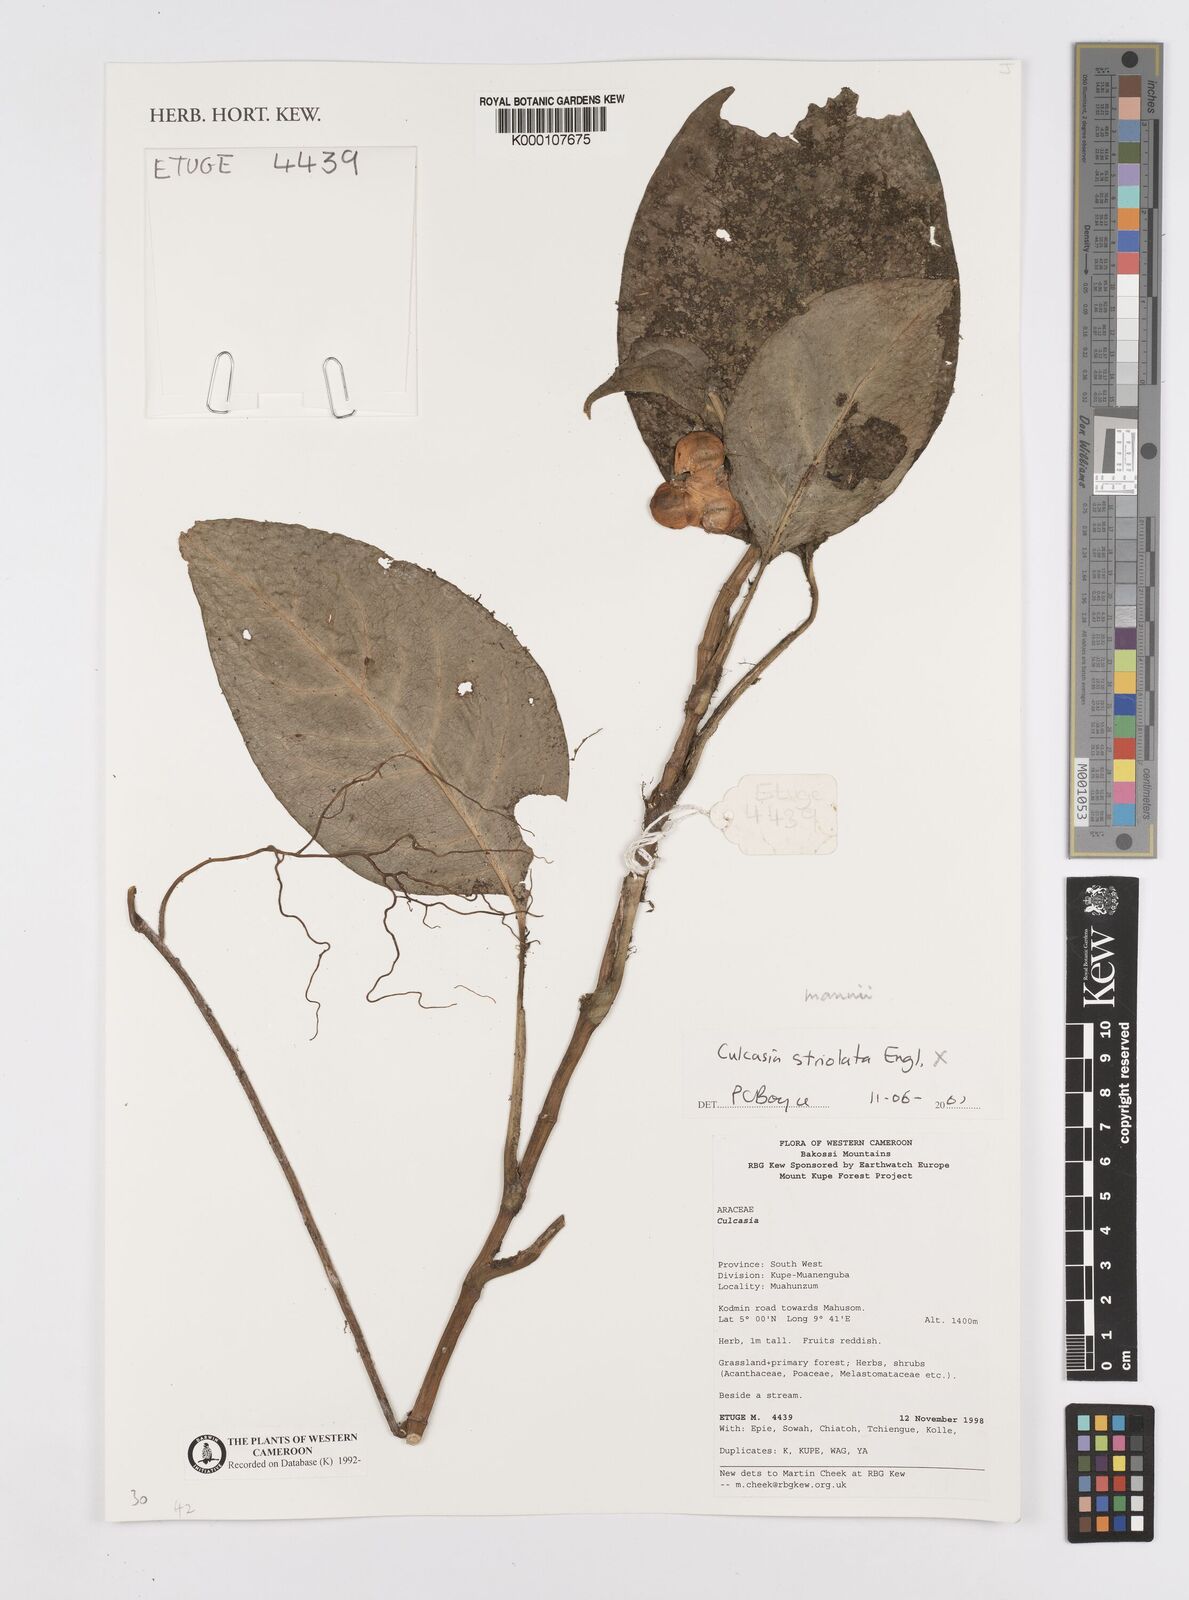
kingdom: Plantae
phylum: Tracheophyta
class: Liliopsida
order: Alismatales
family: Araceae
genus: Culcasia
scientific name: Culcasia striolata
